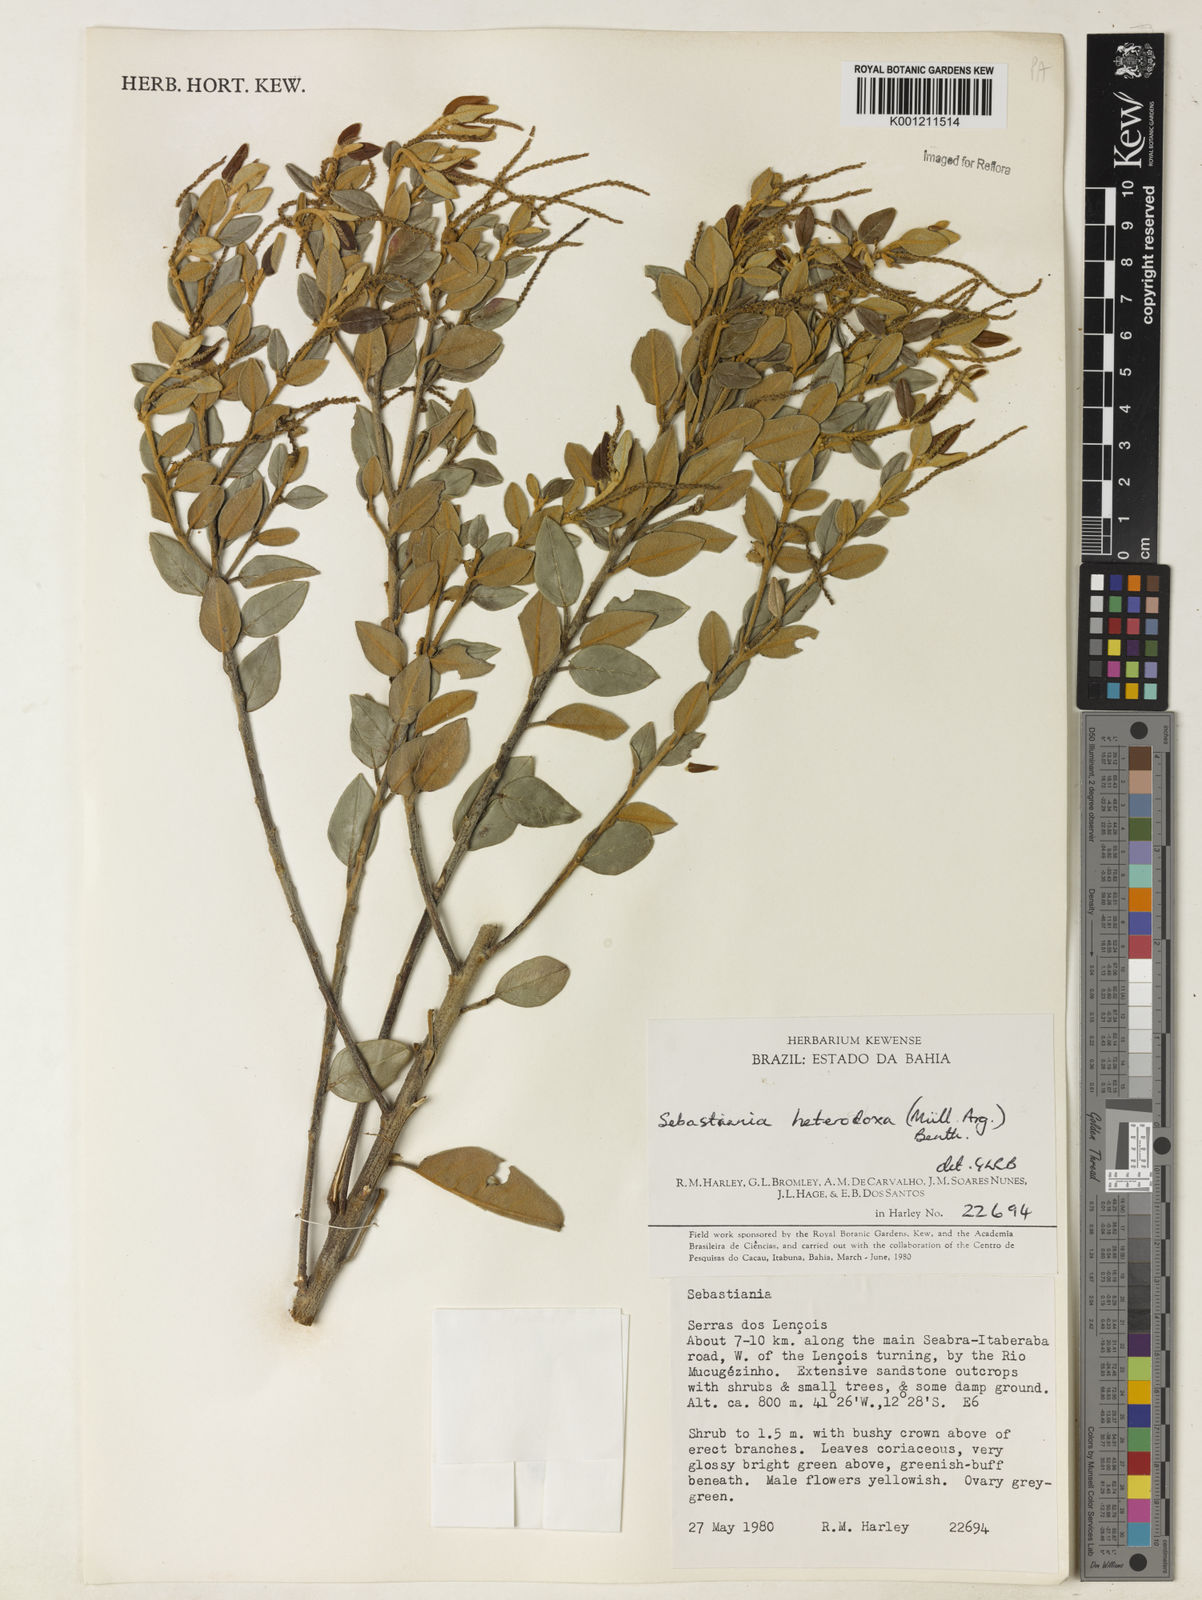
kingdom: Plantae
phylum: Tracheophyta
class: Magnoliopsida
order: Malpighiales
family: Euphorbiaceae
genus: Microstachys
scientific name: Microstachys
